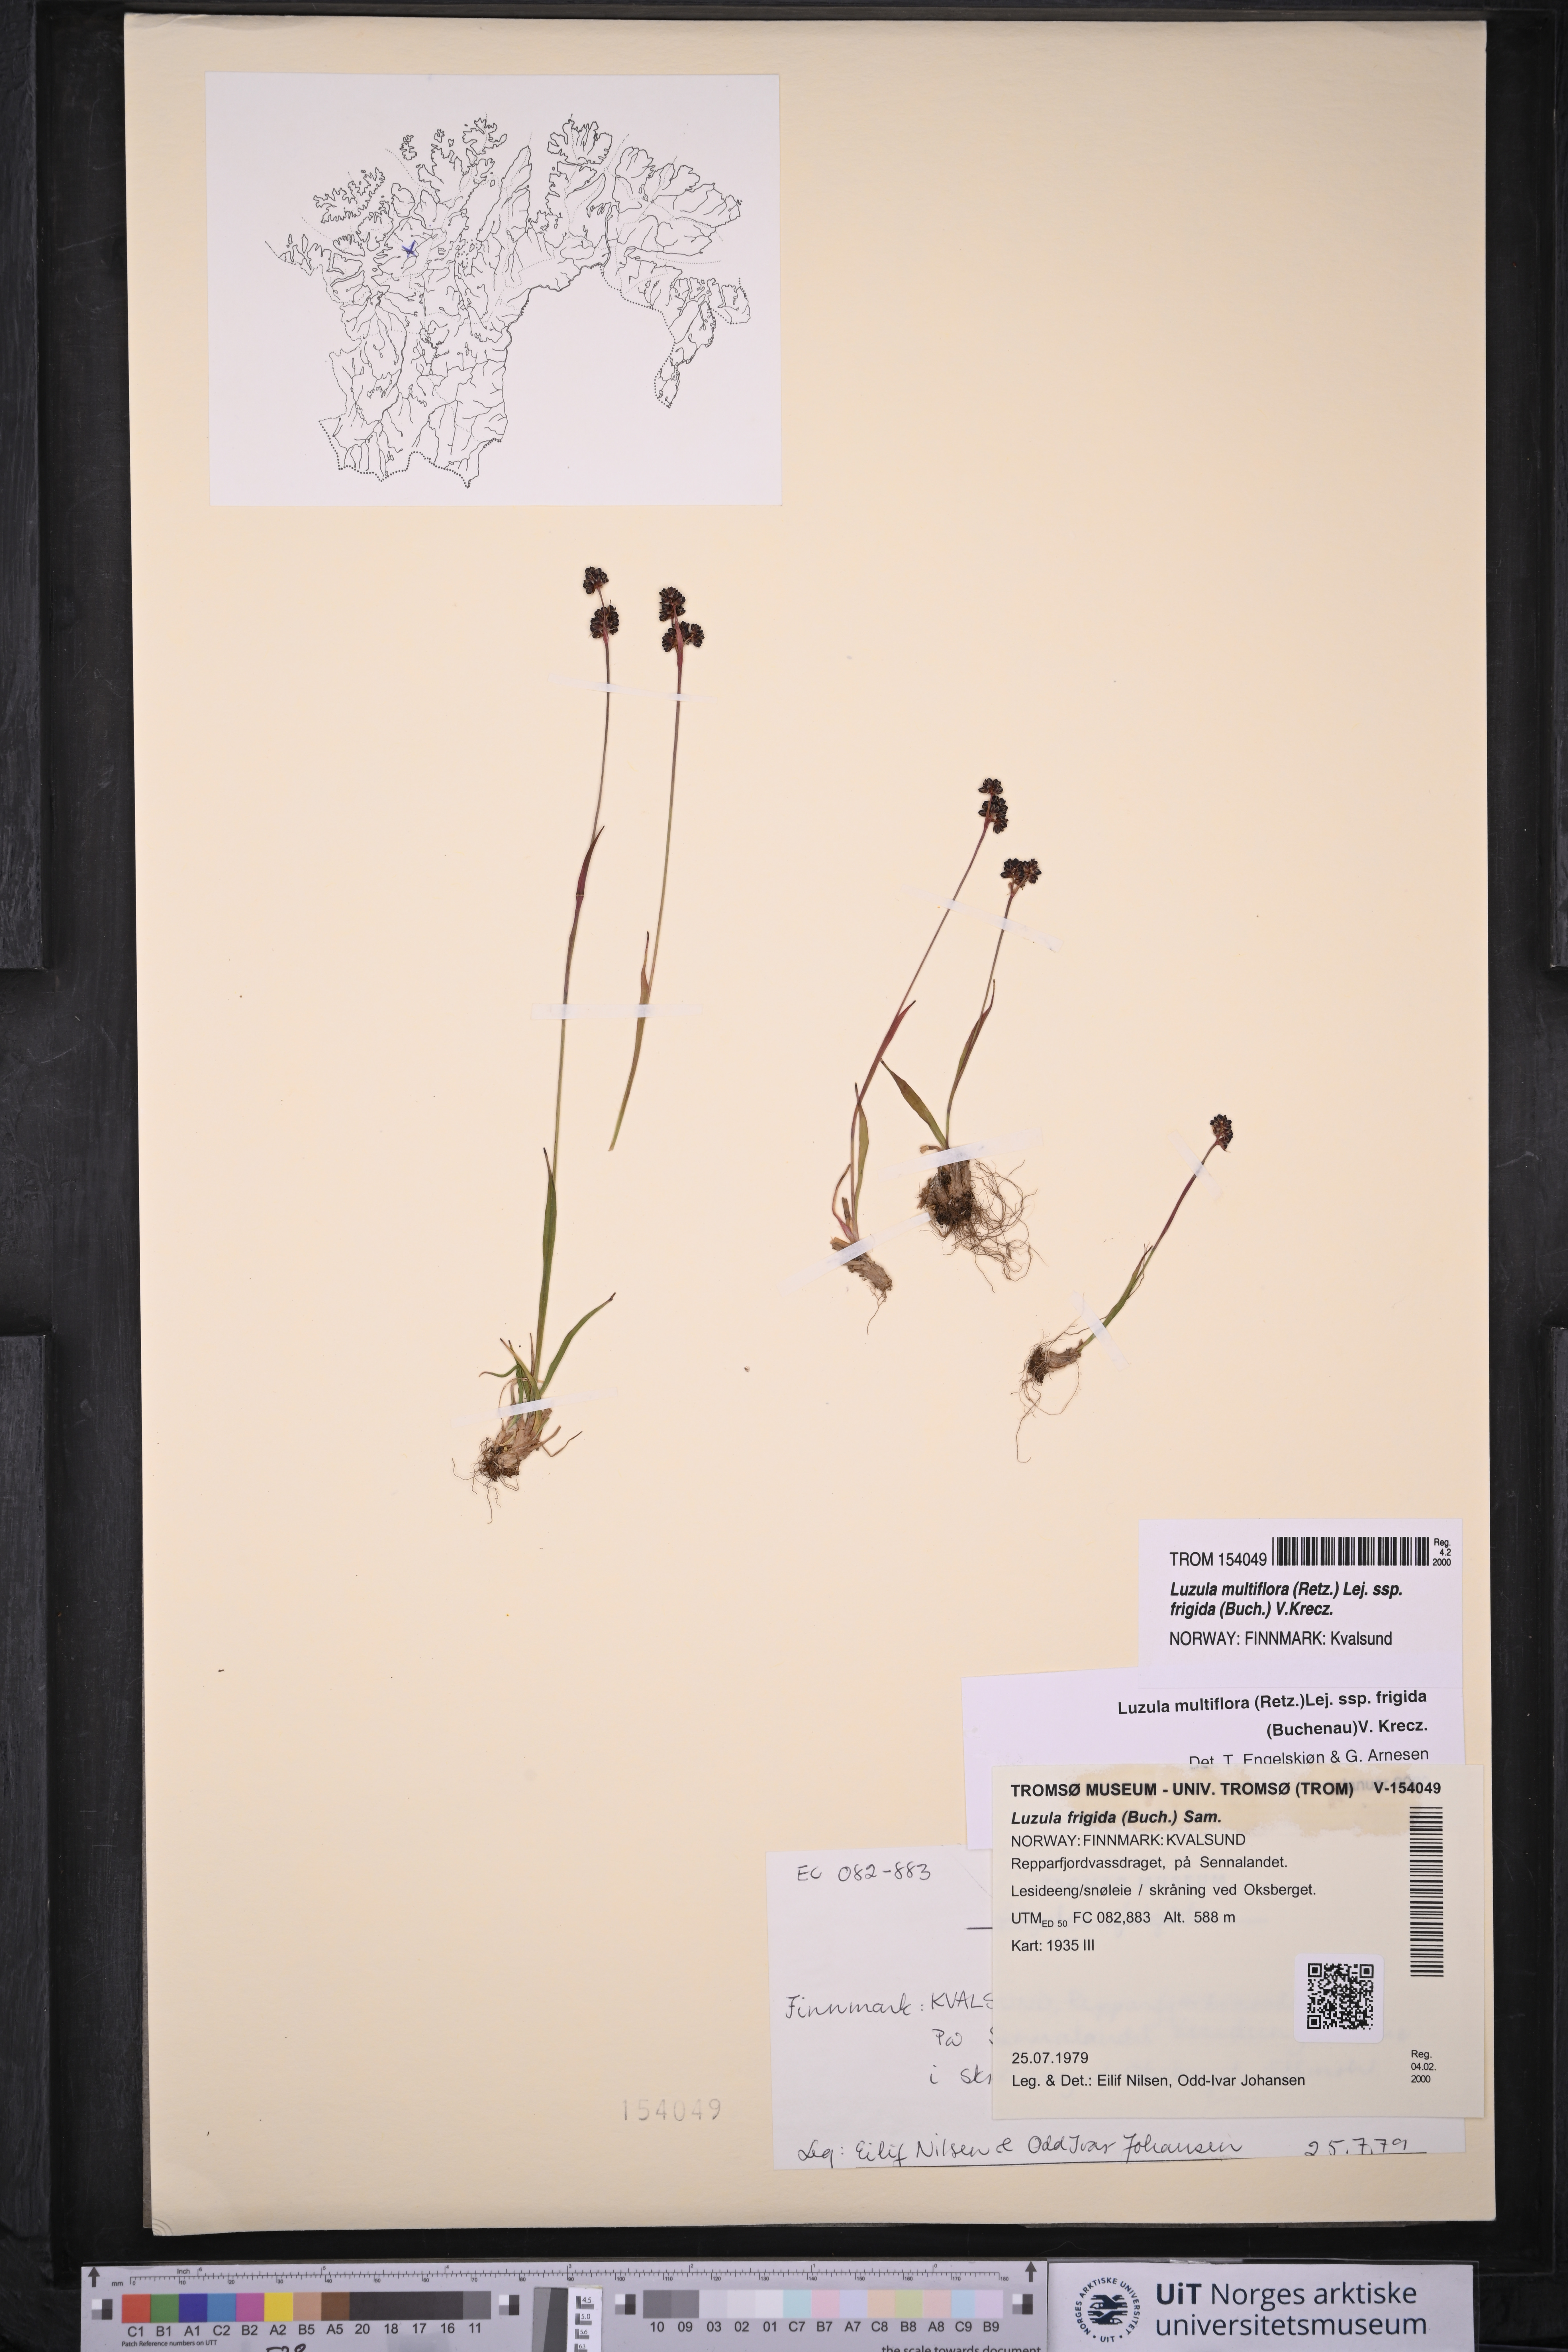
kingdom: Plantae
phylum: Tracheophyta
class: Liliopsida
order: Poales
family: Juncaceae
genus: Luzula
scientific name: Luzula multiflora
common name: Heath wood-rush
